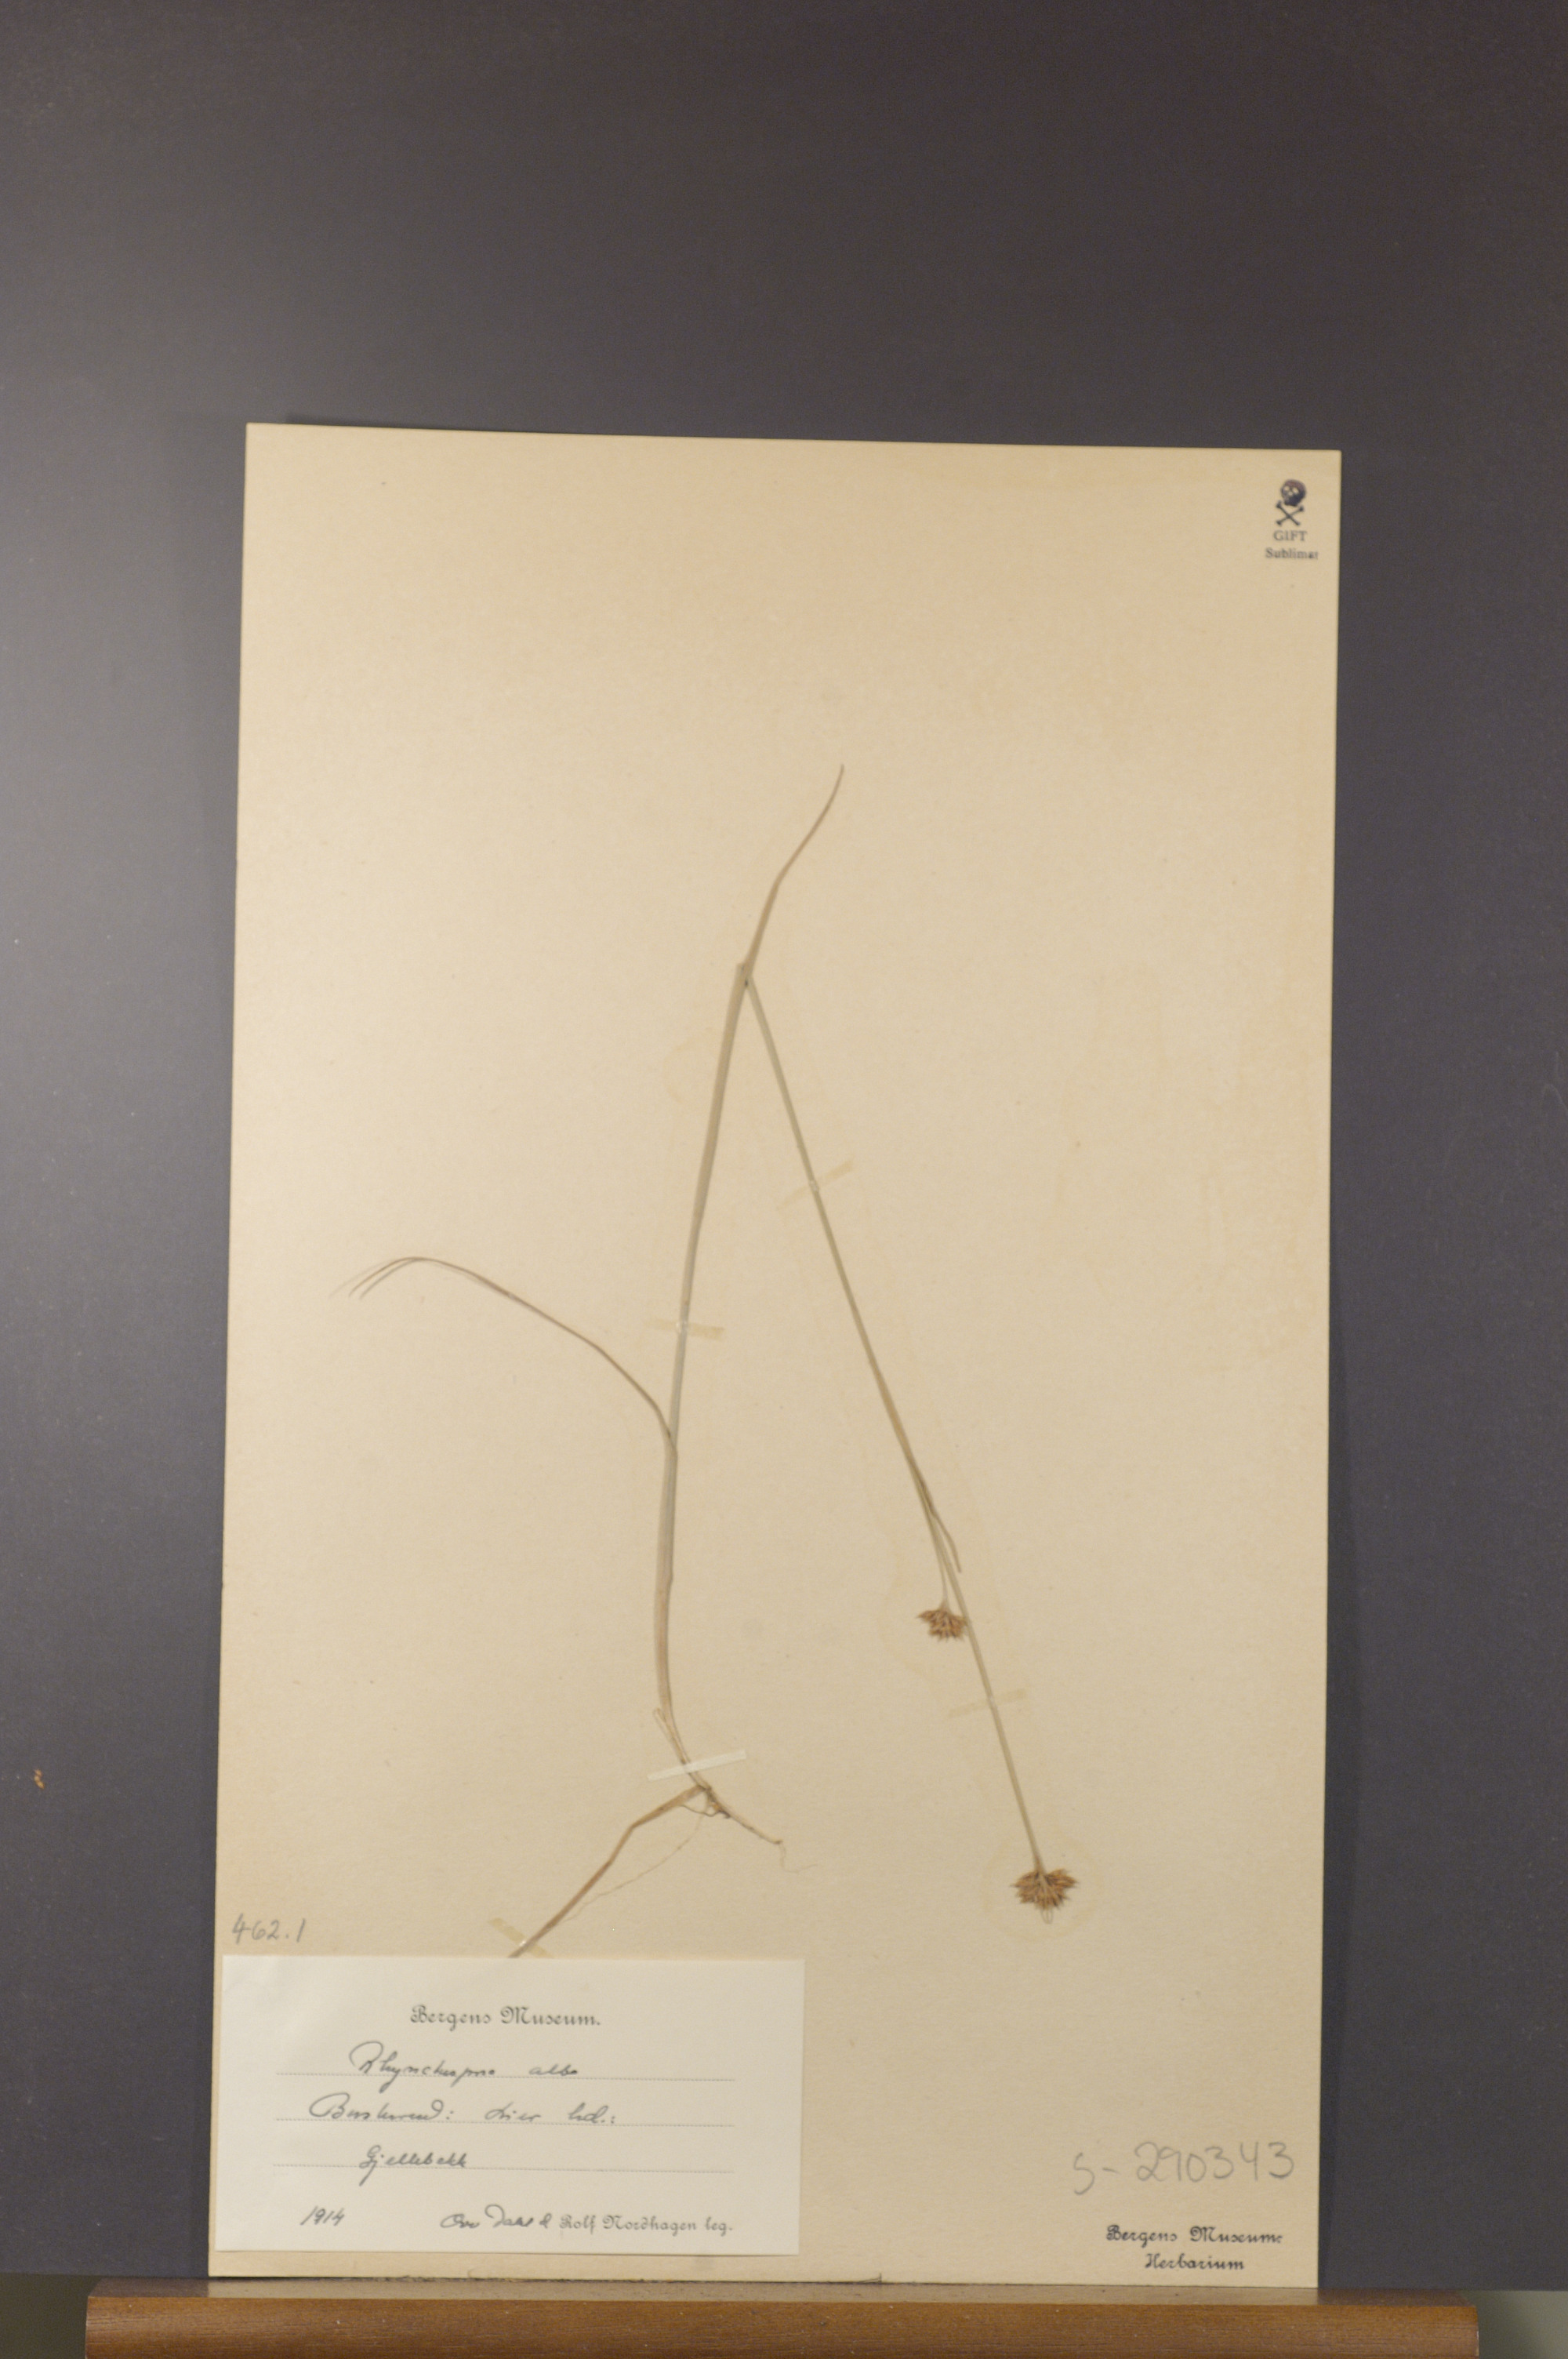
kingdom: Plantae
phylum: Tracheophyta
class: Liliopsida
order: Poales
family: Cyperaceae
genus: Rhynchospora
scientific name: Rhynchospora alba
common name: White beak-sedge
